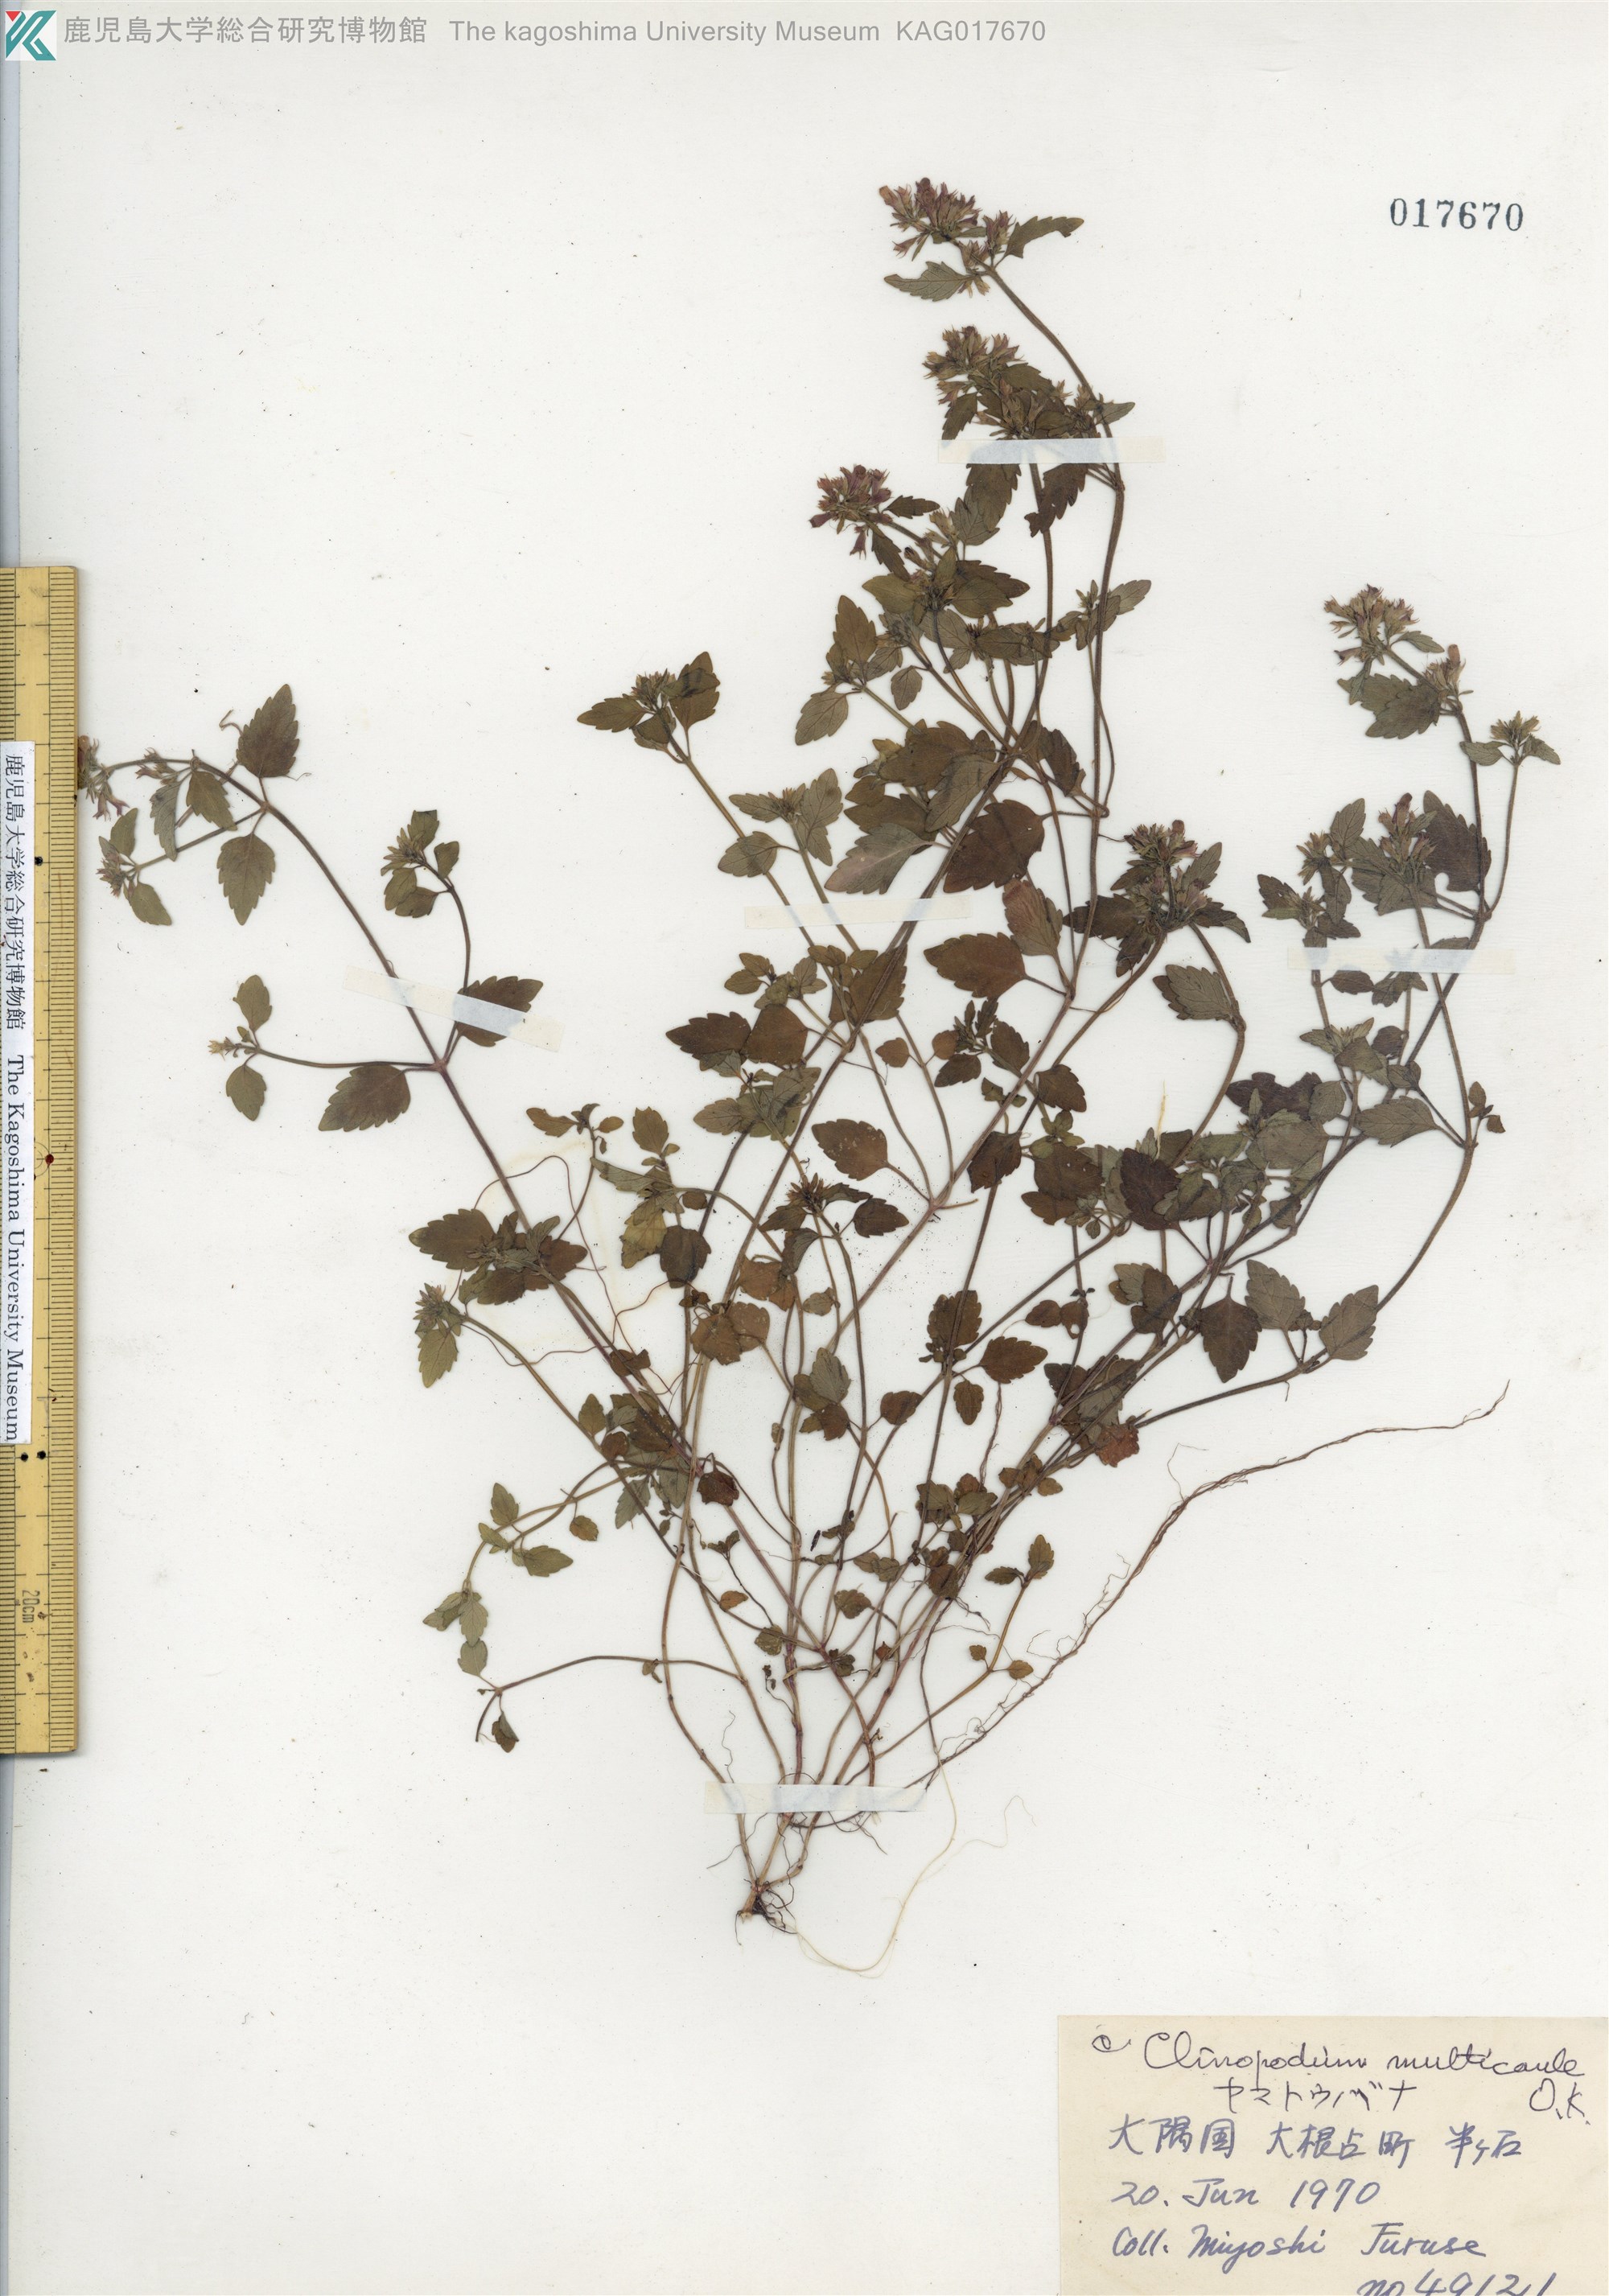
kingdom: Plantae
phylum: Tracheophyta
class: Magnoliopsida
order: Lamiales
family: Lamiaceae
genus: Clinopodium
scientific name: Clinopodium multicaule
